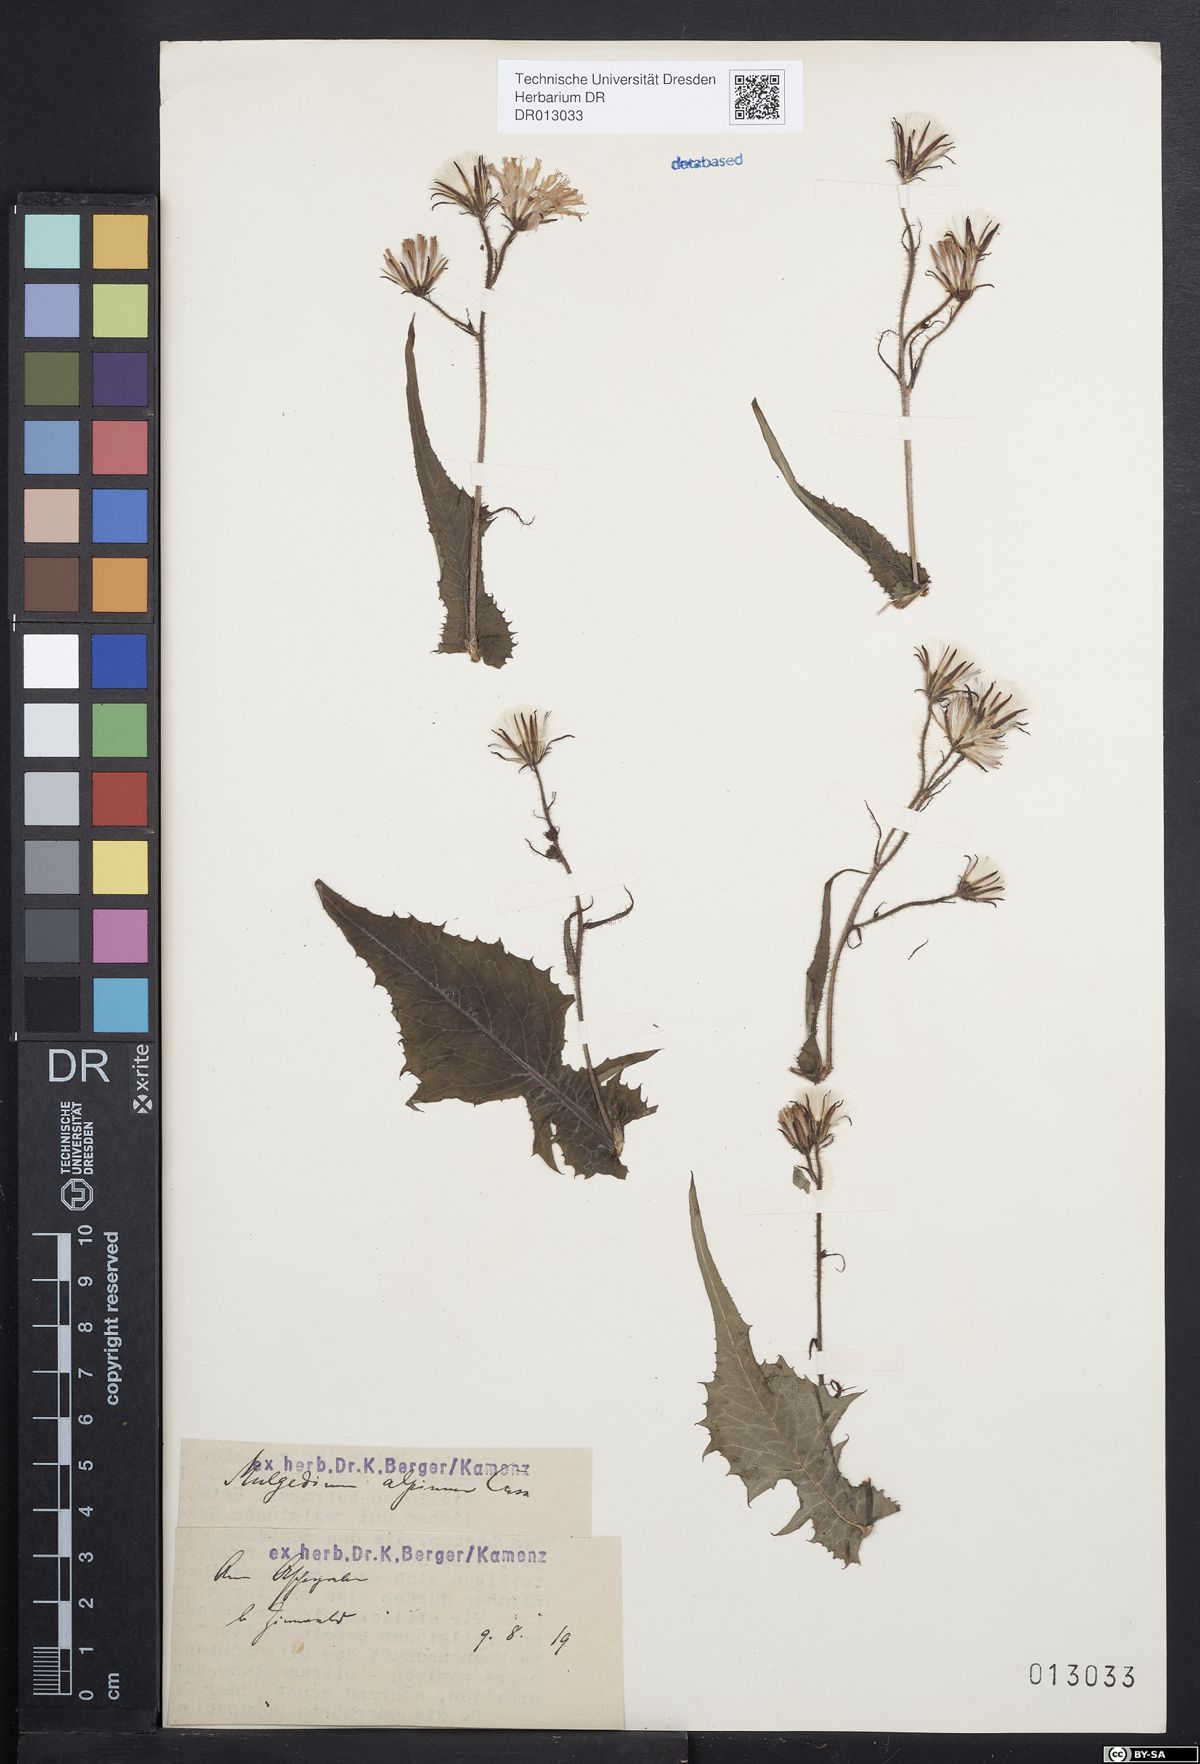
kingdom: Plantae
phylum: Tracheophyta
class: Magnoliopsida
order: Asterales
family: Asteraceae
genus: Cicerbita
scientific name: Cicerbita alpina
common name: Alpine blue-sow-thistle
